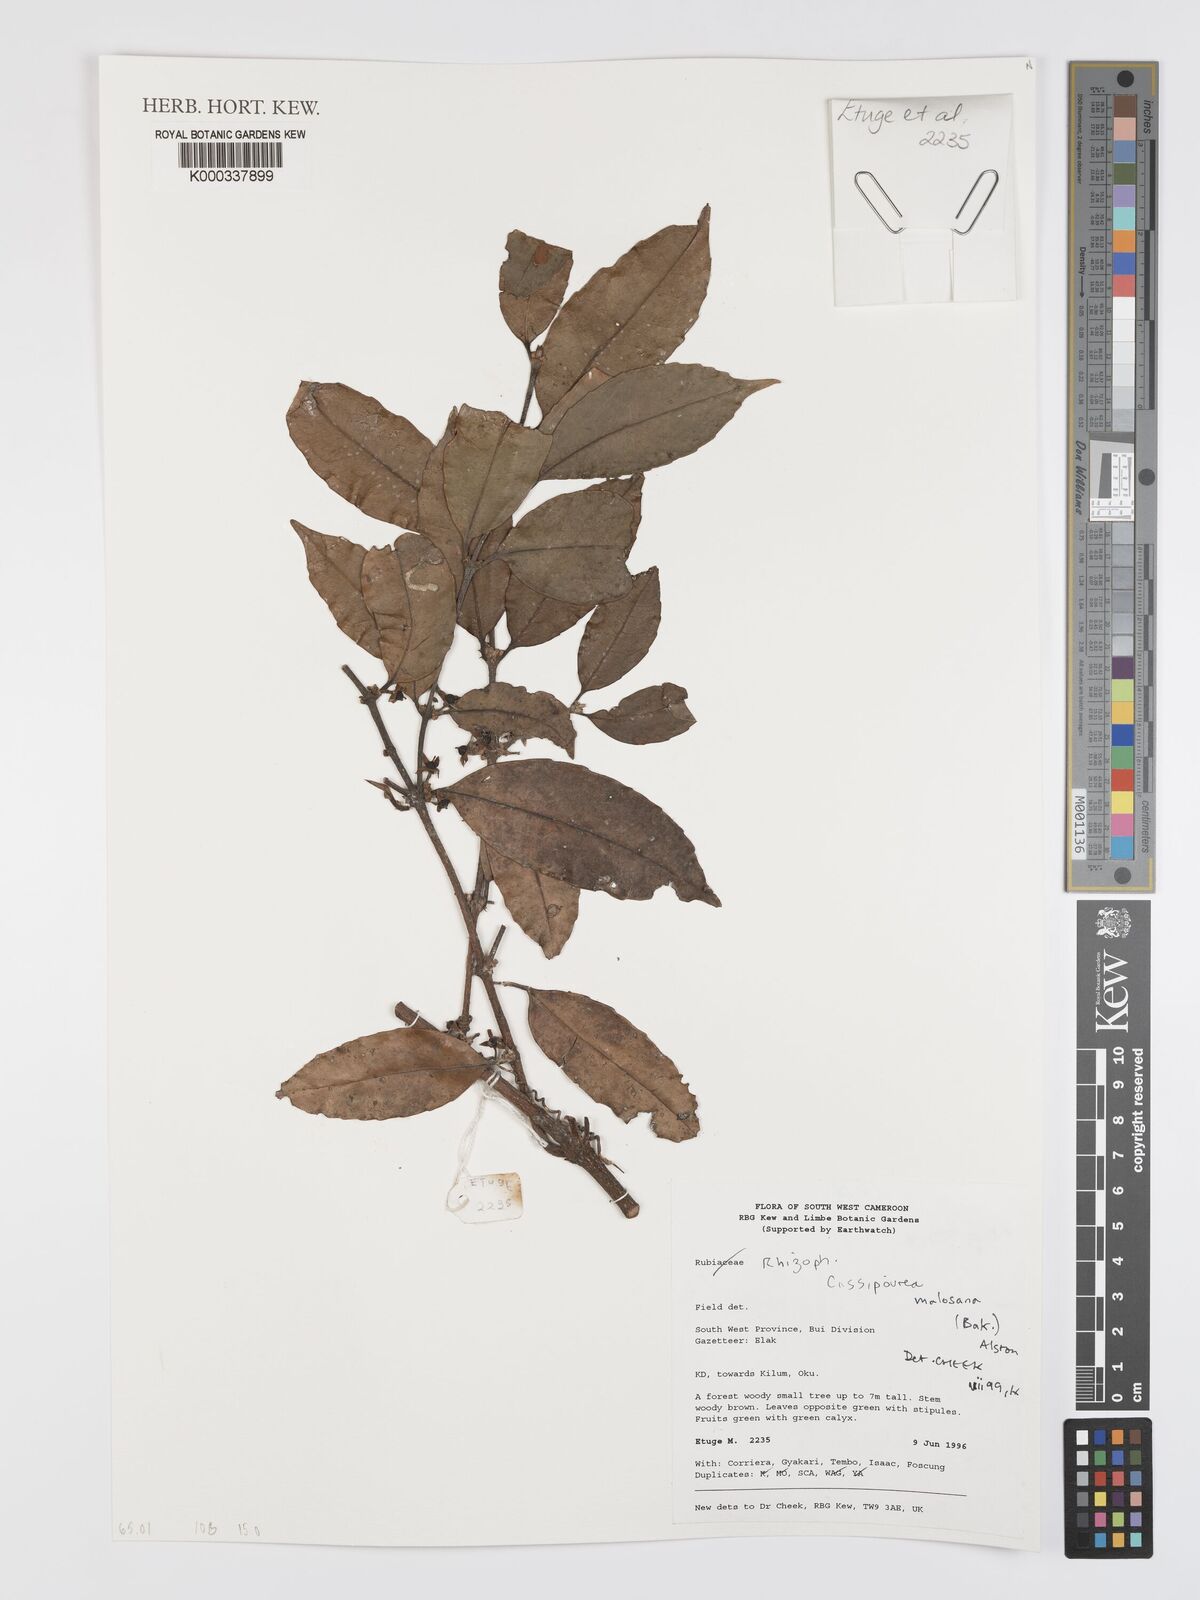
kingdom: Plantae
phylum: Tracheophyta
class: Magnoliopsida
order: Malpighiales
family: Rhizophoraceae
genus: Cassipourea
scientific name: Cassipourea malosana
